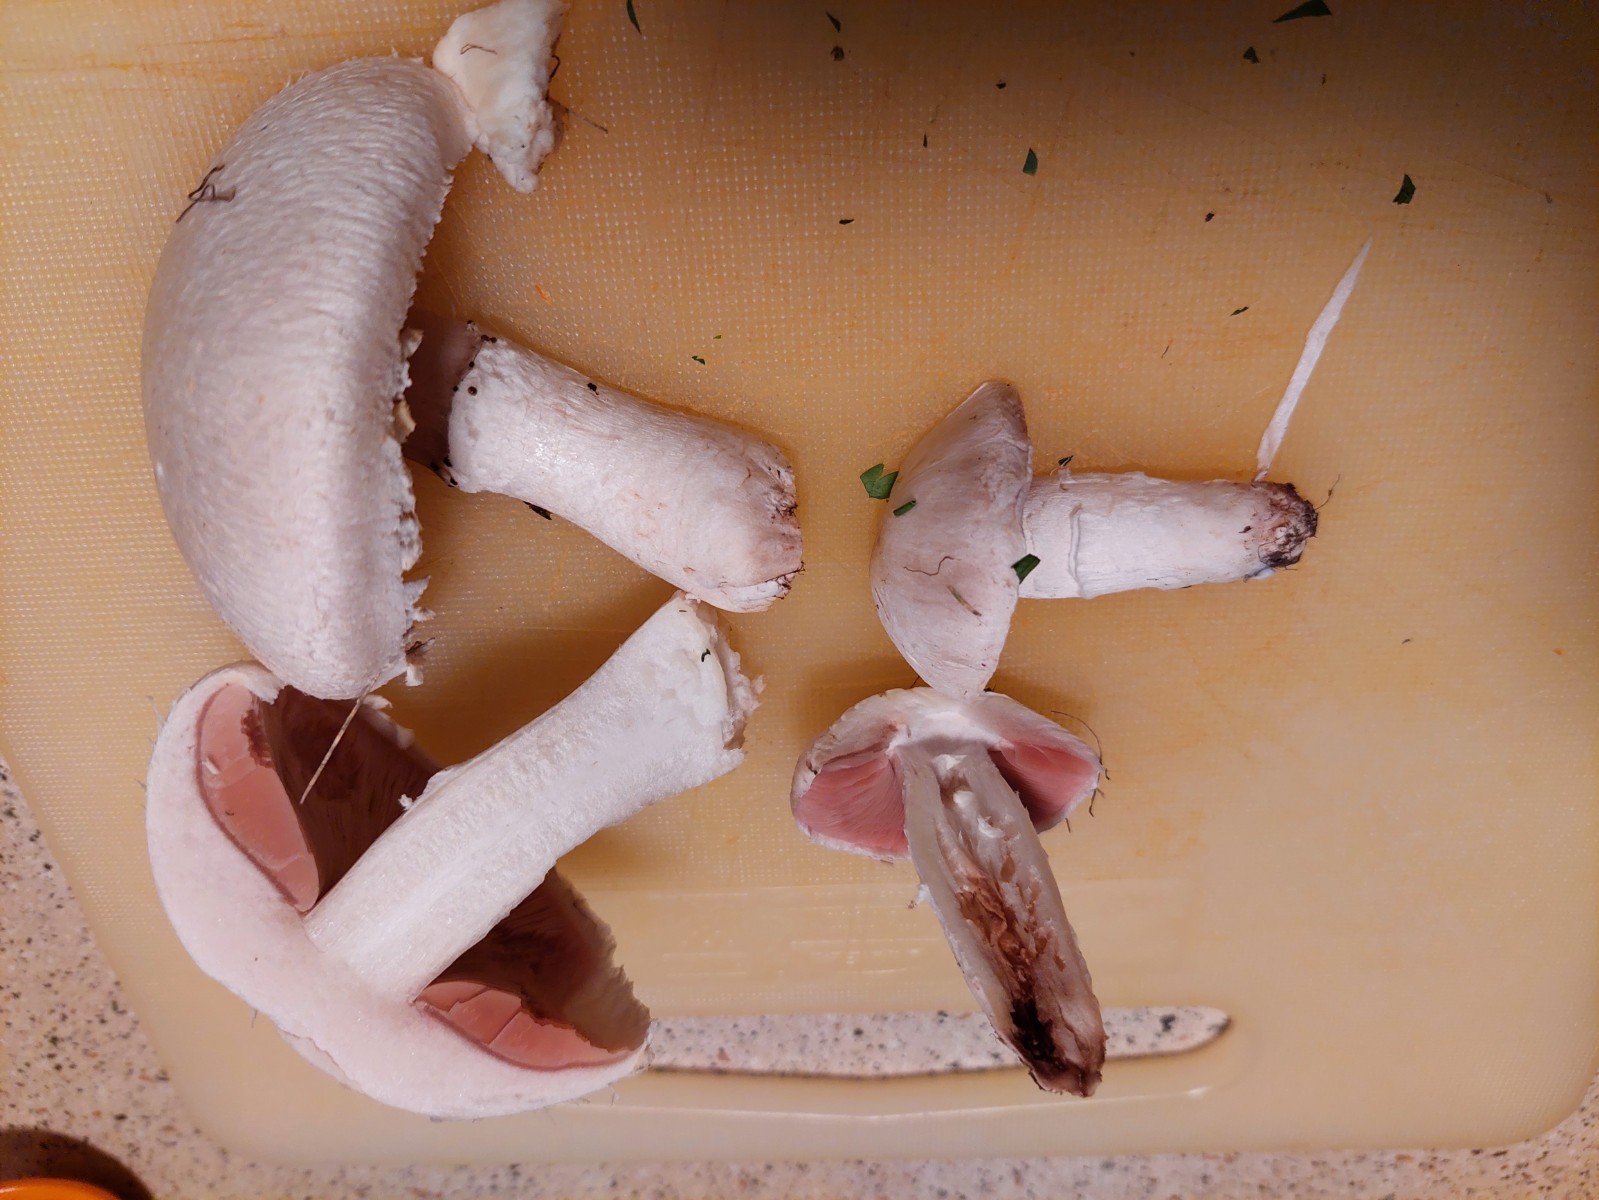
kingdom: Fungi
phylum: Basidiomycota
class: Agaricomycetes
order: Agaricales
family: Agaricaceae
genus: Agaricus
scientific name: Agaricus campestris
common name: mark-champignon
